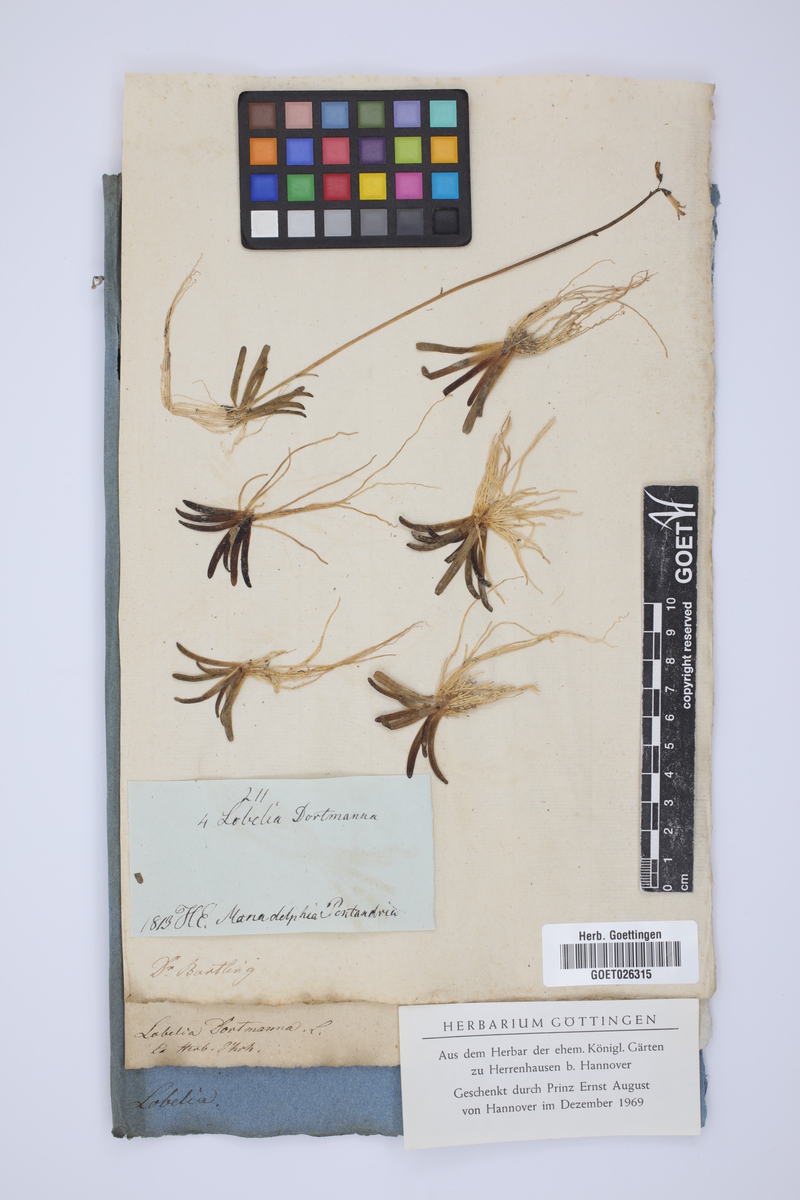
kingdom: Plantae
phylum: Tracheophyta
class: Magnoliopsida
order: Asterales
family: Campanulaceae
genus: Lobelia
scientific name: Lobelia dortmanna
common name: Water lobelia
